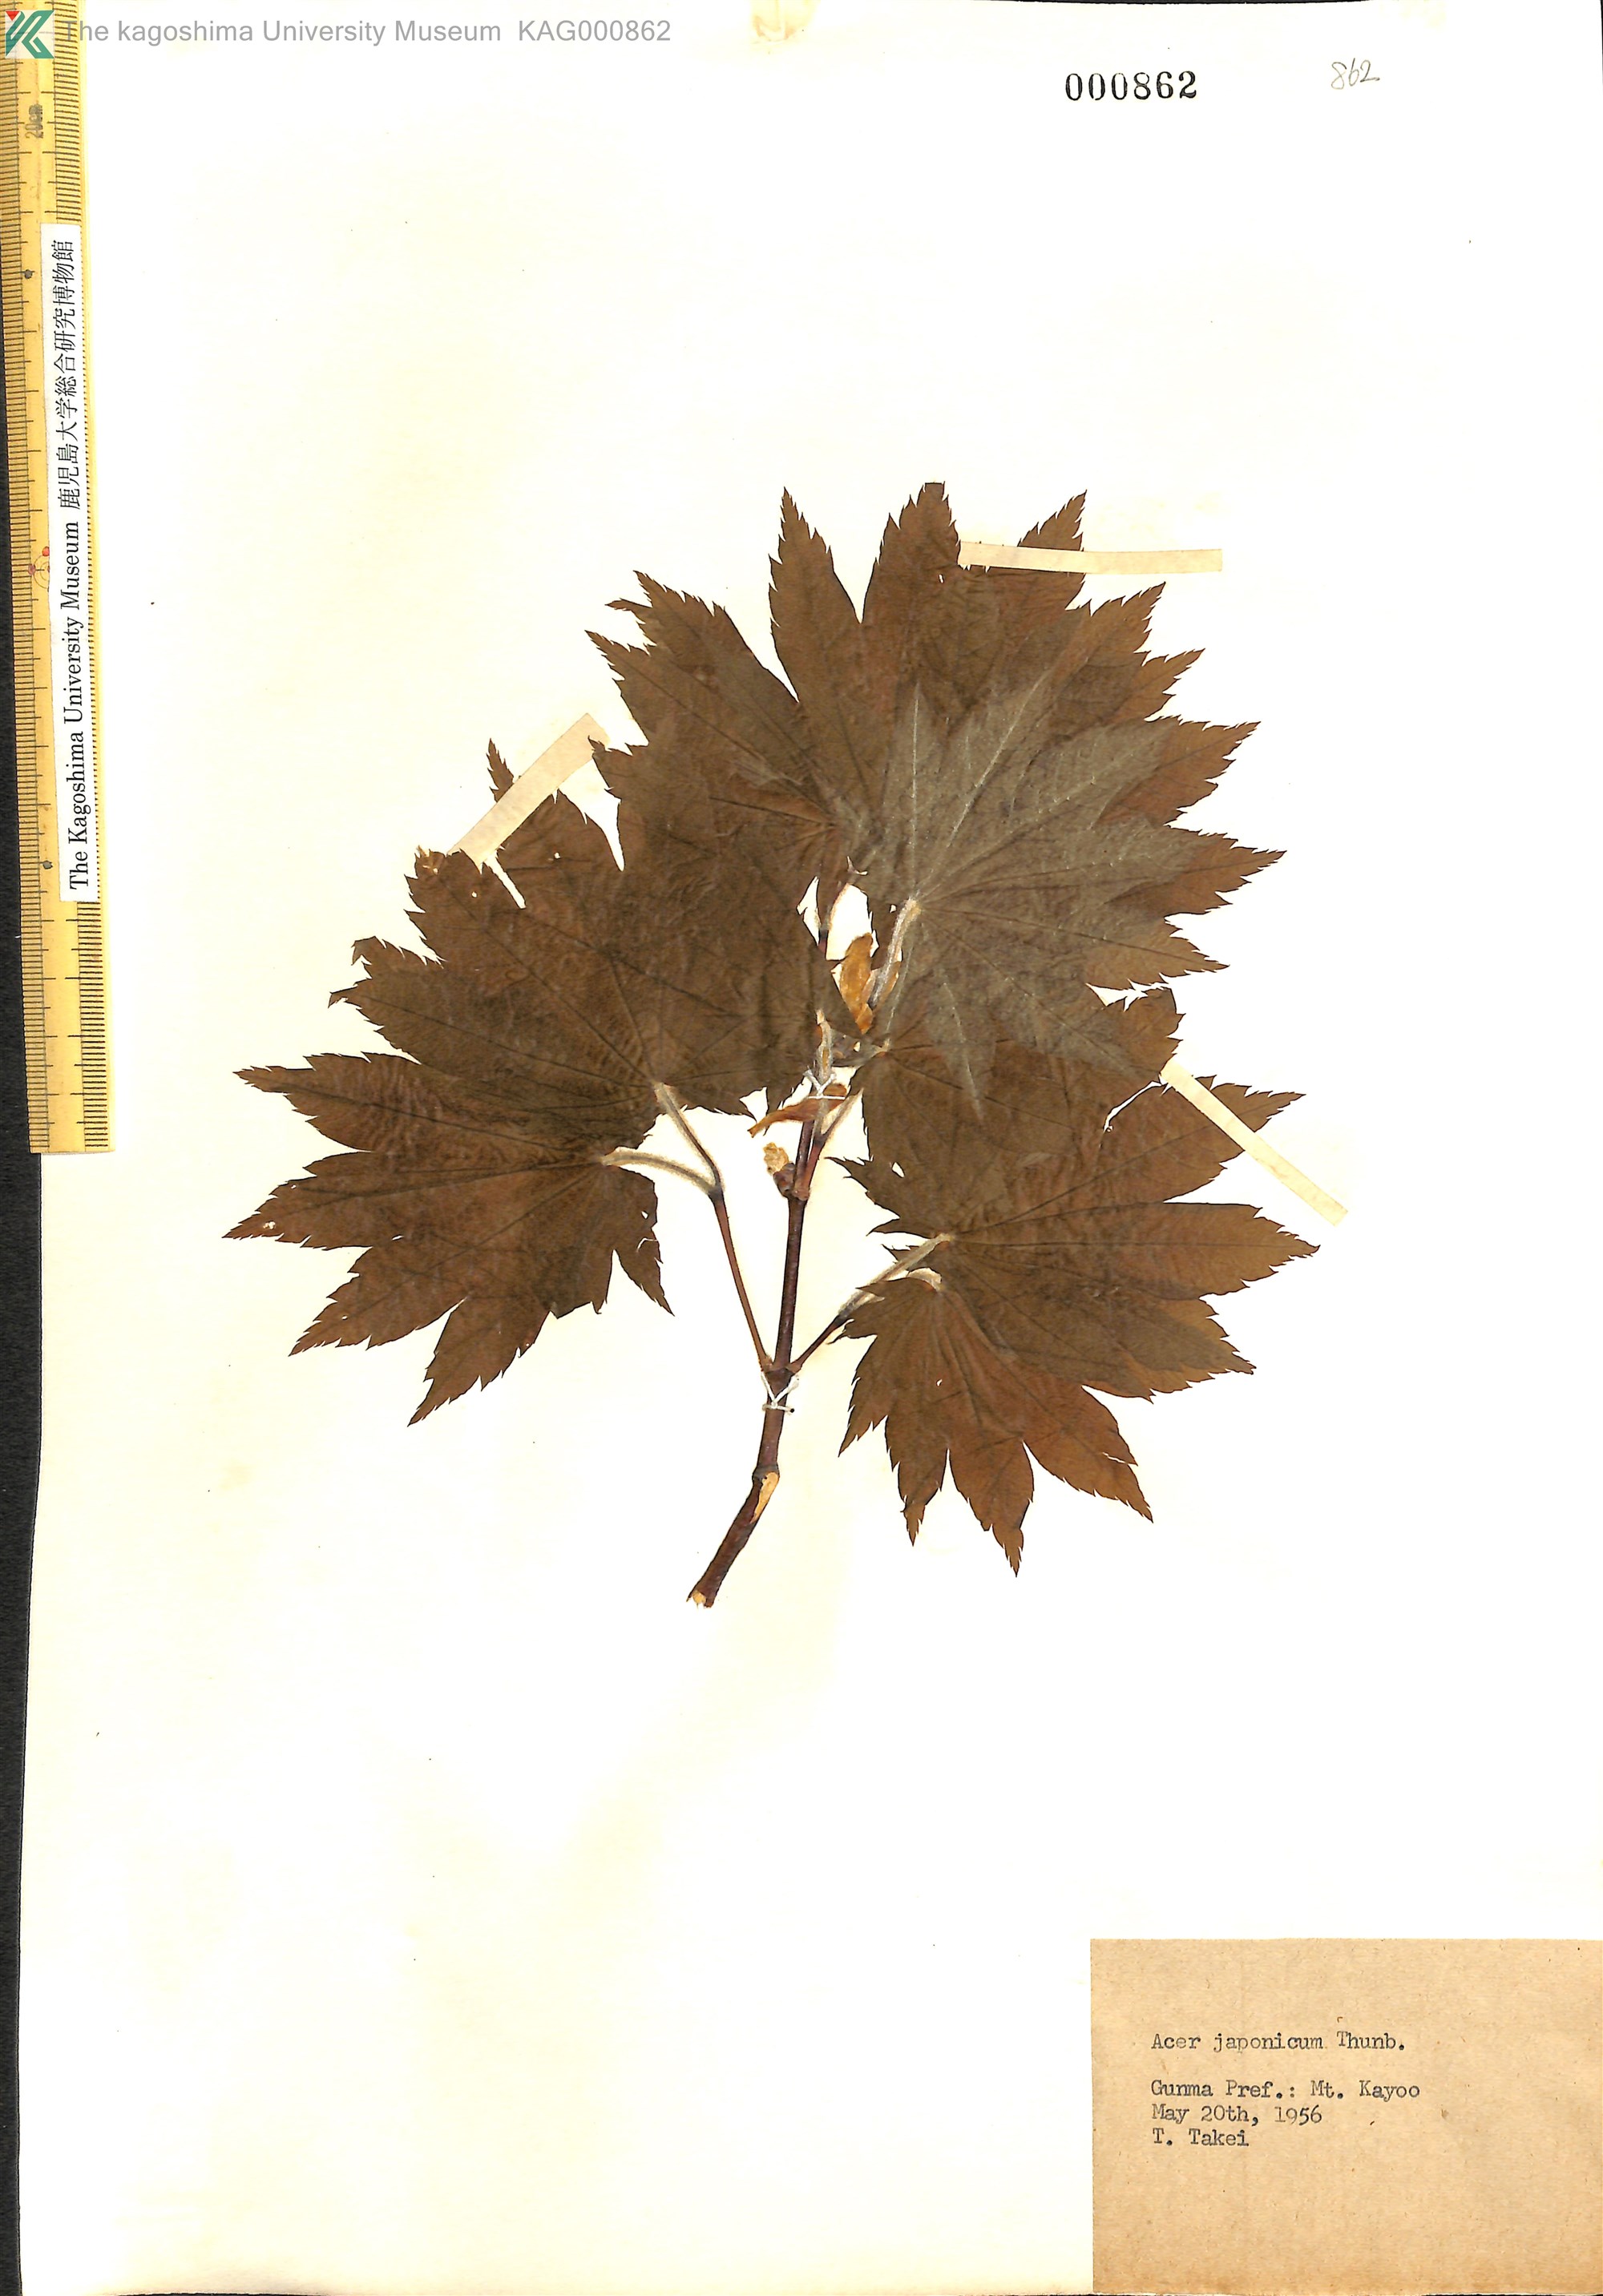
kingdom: Plantae
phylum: Tracheophyta
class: Magnoliopsida
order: Sapindales
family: Sapindaceae
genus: Acer
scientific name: Acer japonicum
